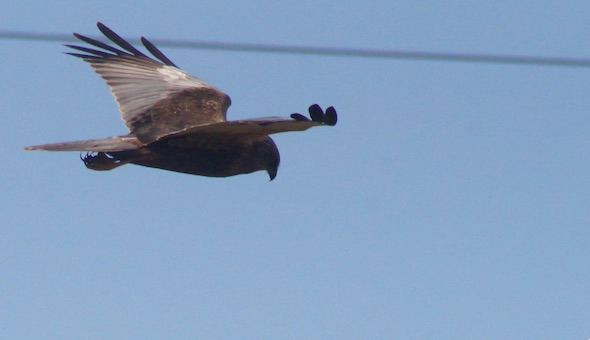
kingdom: Animalia
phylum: Chordata
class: Aves
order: Accipitriformes
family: Accipitridae
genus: Circus
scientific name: Circus aeruginosus
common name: Rørhøg
